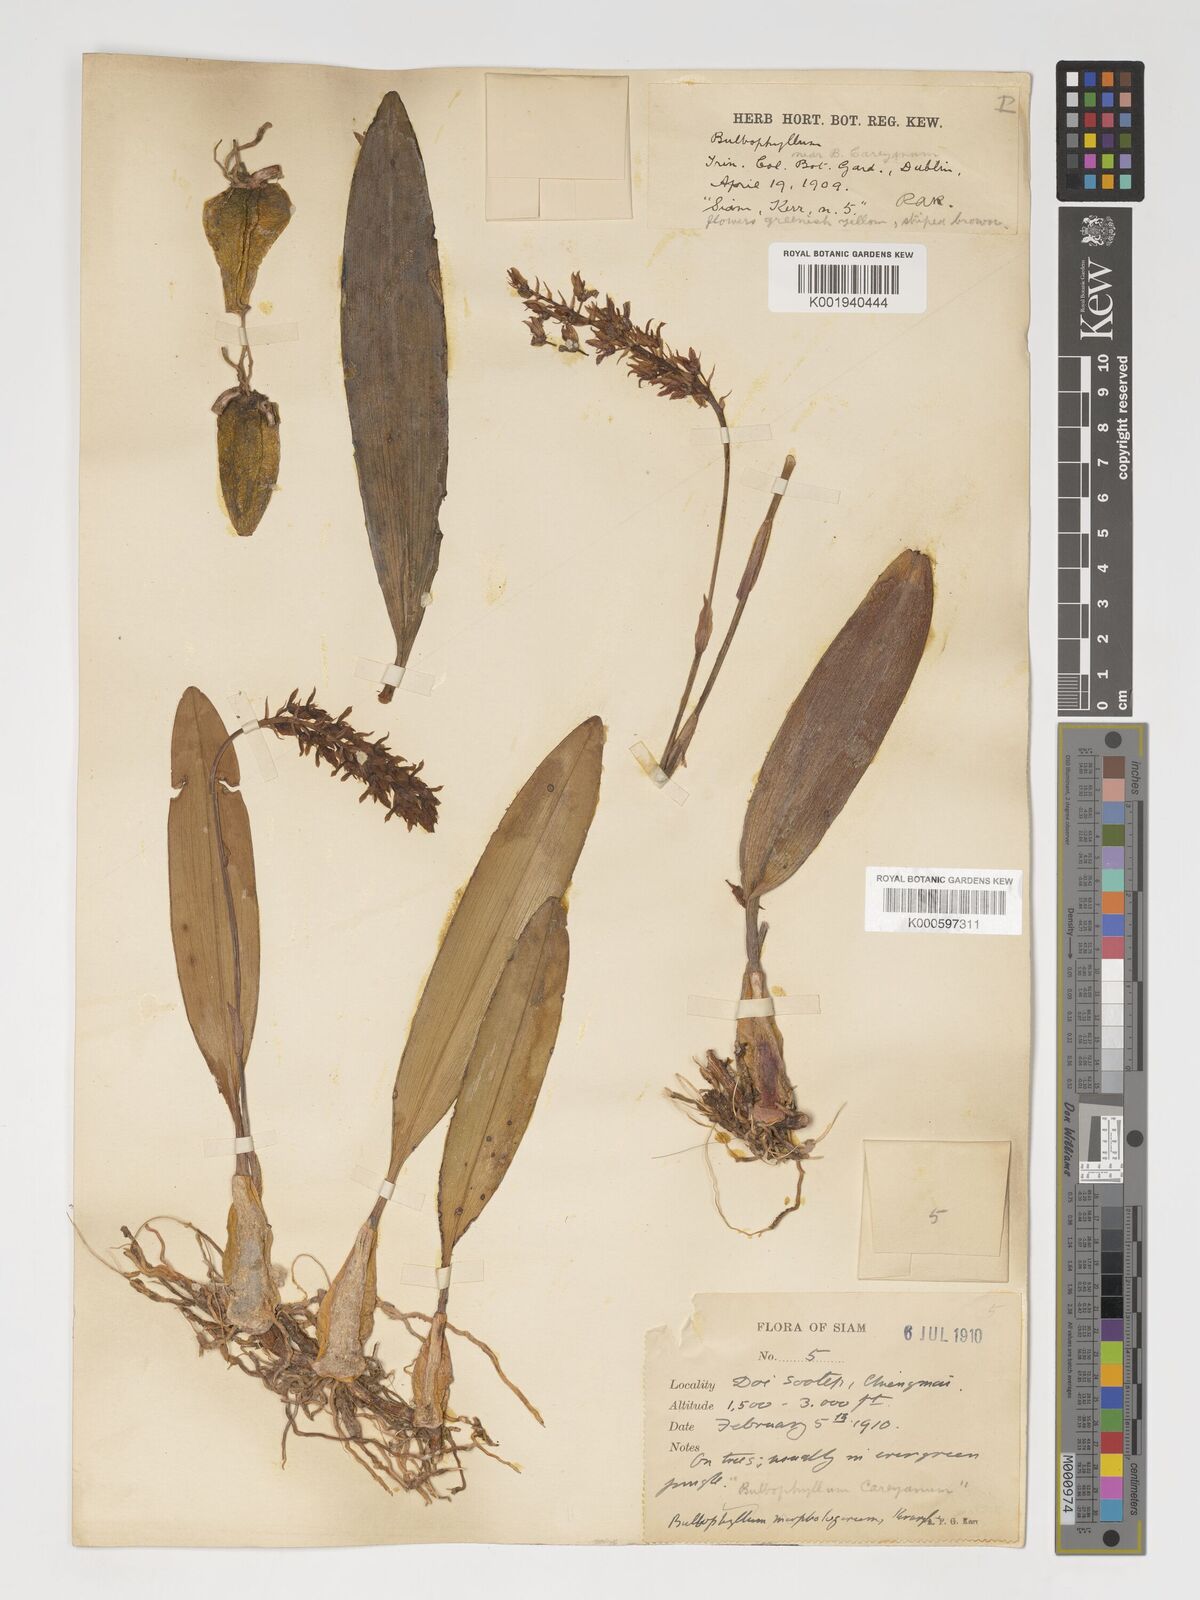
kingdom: Plantae
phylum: Tracheophyta
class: Liliopsida
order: Asparagales
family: Orchidaceae
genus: Bulbophyllum
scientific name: Bulbophyllum morphologorum
